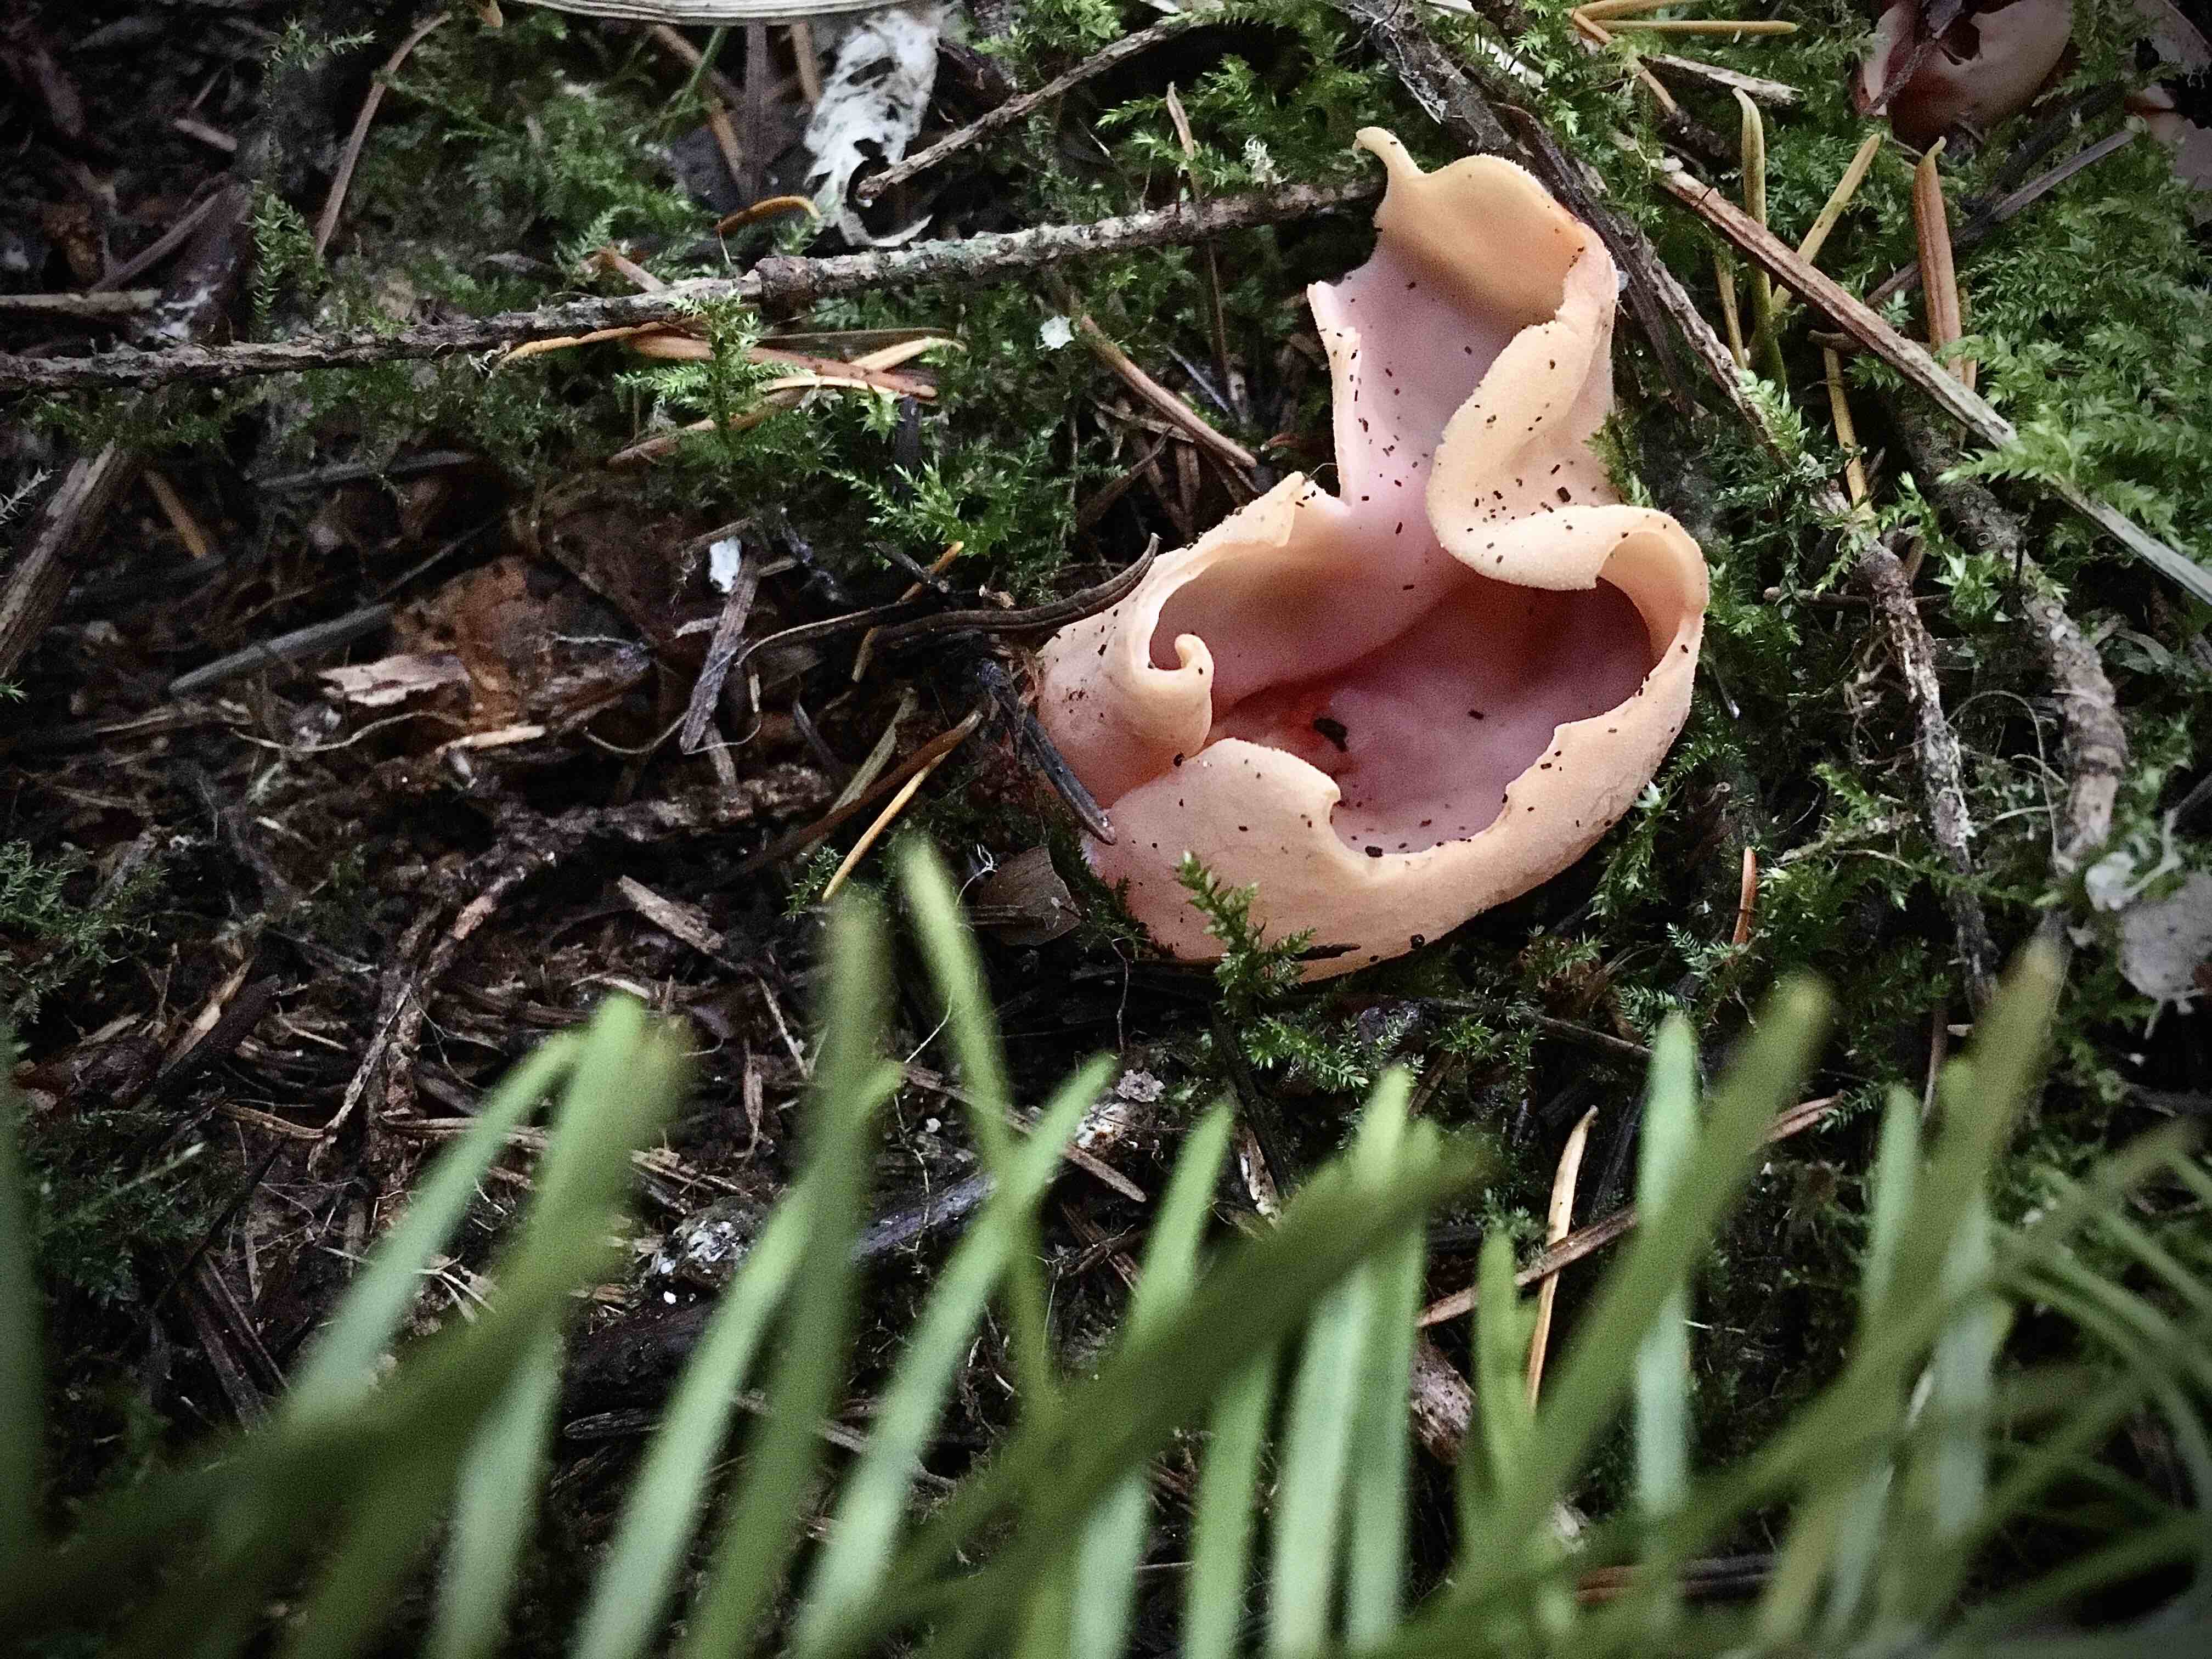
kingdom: Fungi
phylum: Ascomycota
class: Pezizomycetes
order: Pezizales
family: Otideaceae
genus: Otidea
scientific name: Otidea onotica
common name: æsel-ørebæger
